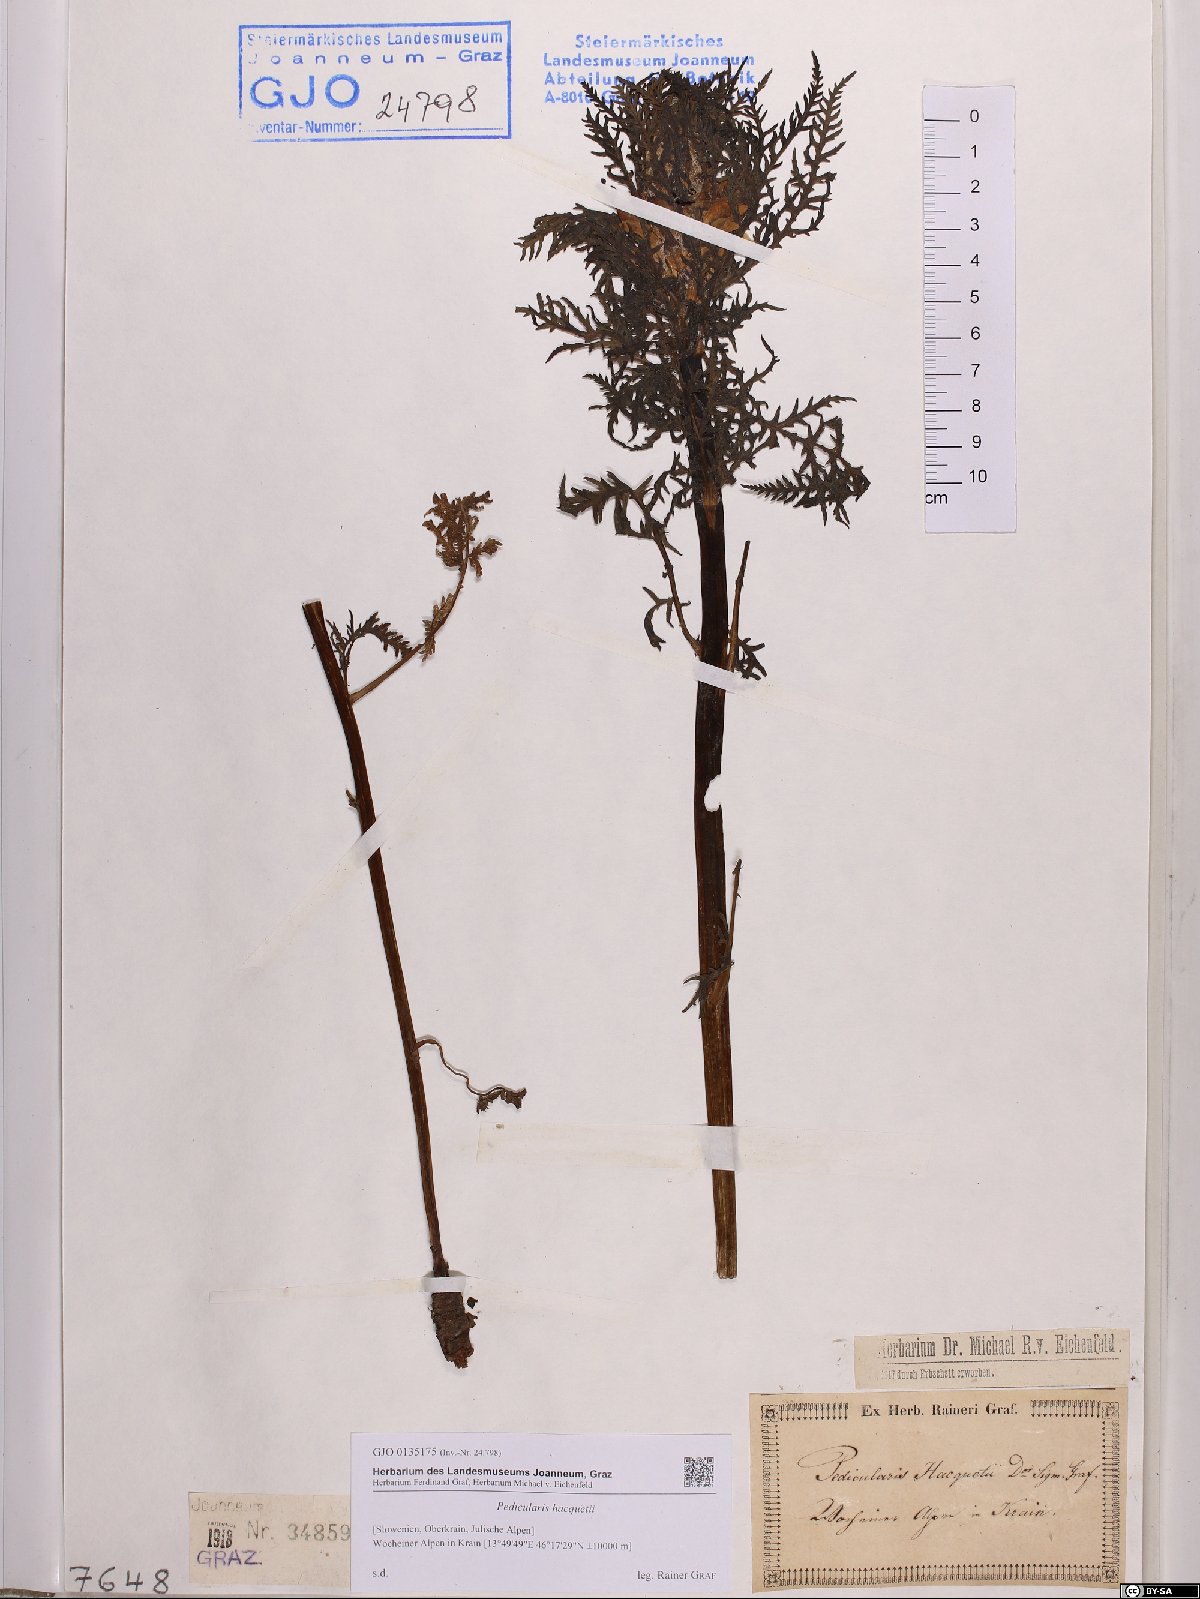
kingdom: Plantae
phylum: Tracheophyta
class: Magnoliopsida
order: Lamiales
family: Orobanchaceae
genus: Pedicularis
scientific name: Pedicularis hacquetii
